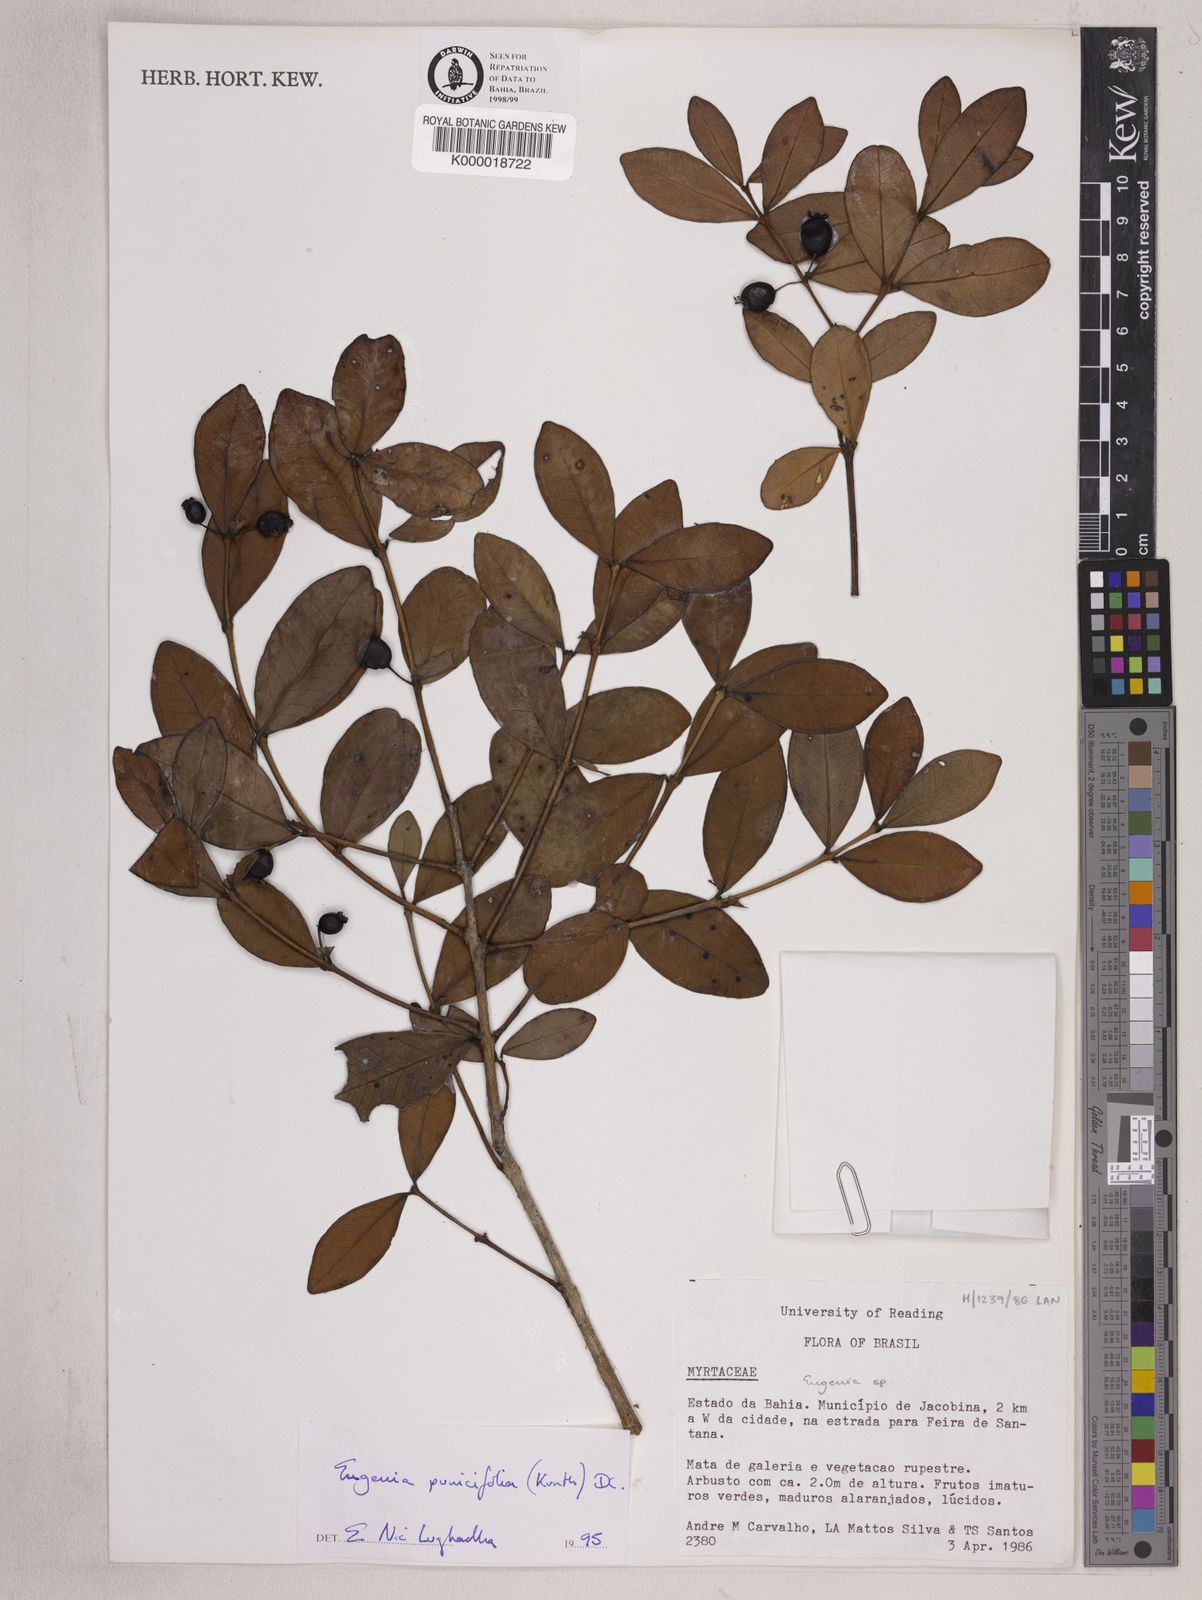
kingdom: Plantae
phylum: Tracheophyta
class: Magnoliopsida
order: Myrtales
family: Myrtaceae
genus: Eugenia
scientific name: Eugenia punicifolia
